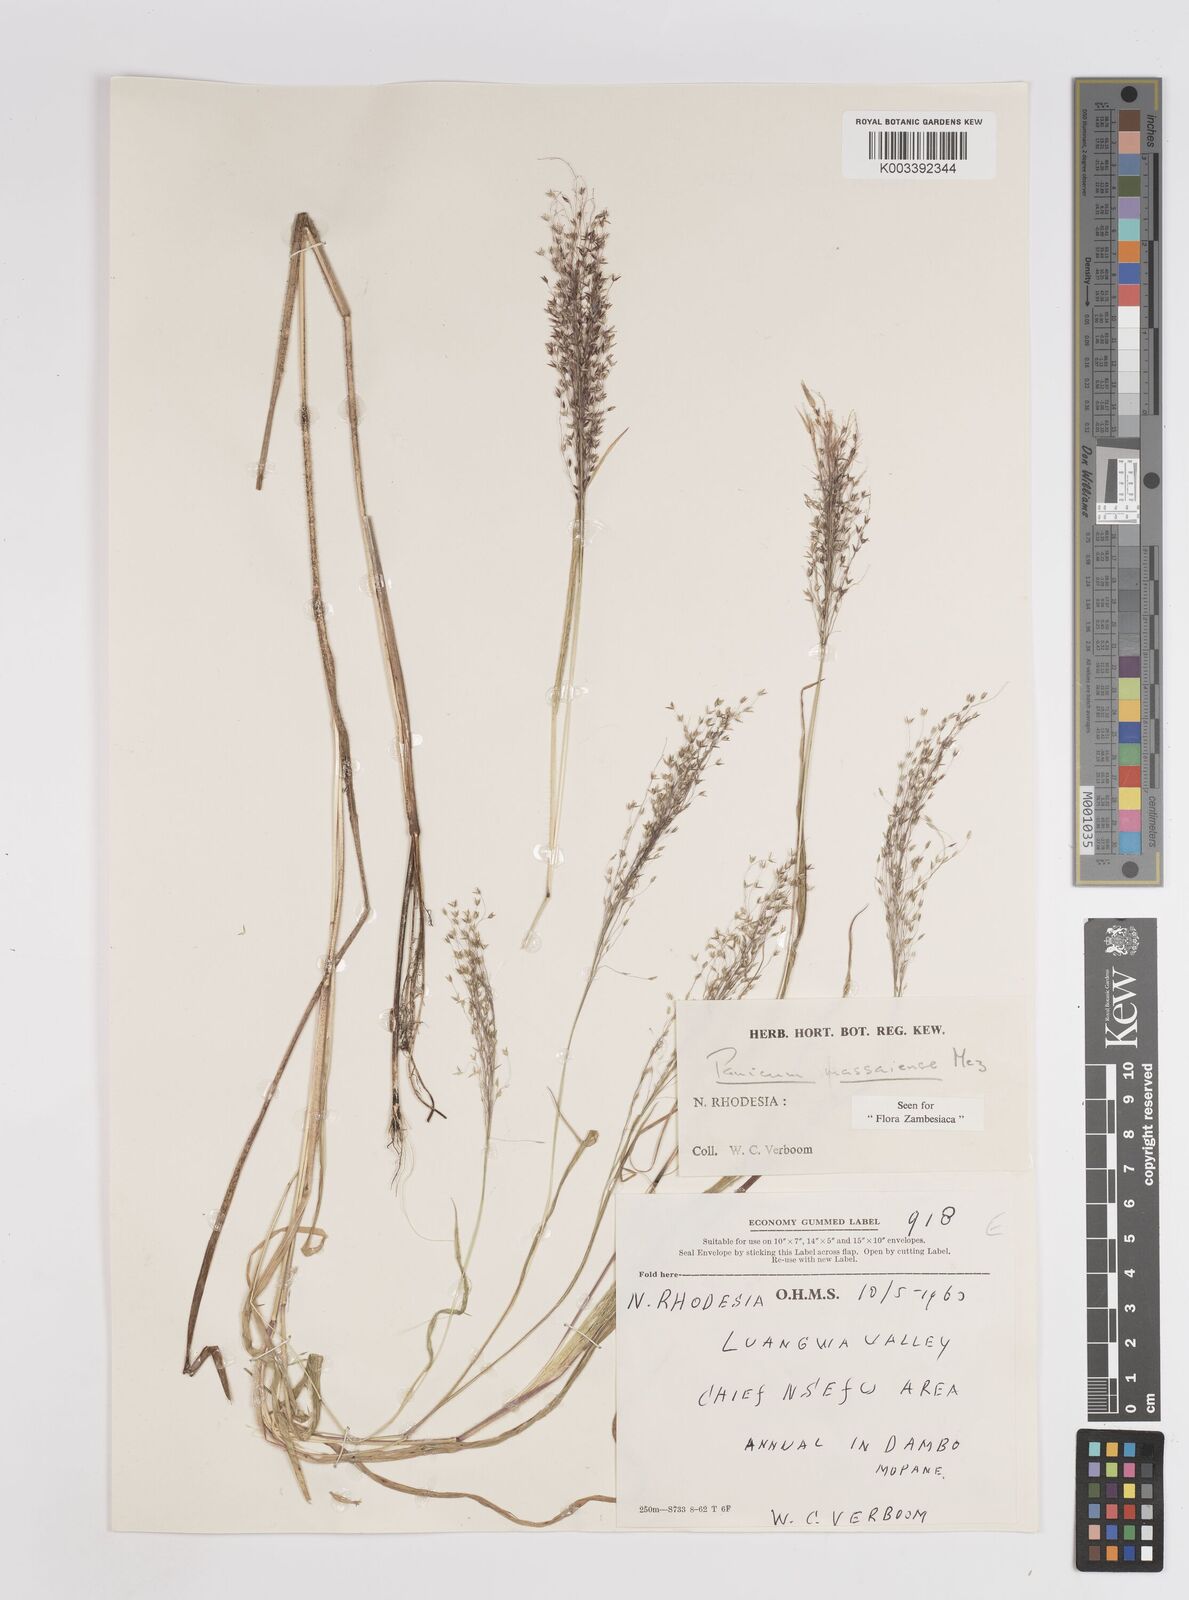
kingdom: Plantae
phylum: Tracheophyta
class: Liliopsida
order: Poales
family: Poaceae
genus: Panicum
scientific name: Panicum massaiense
